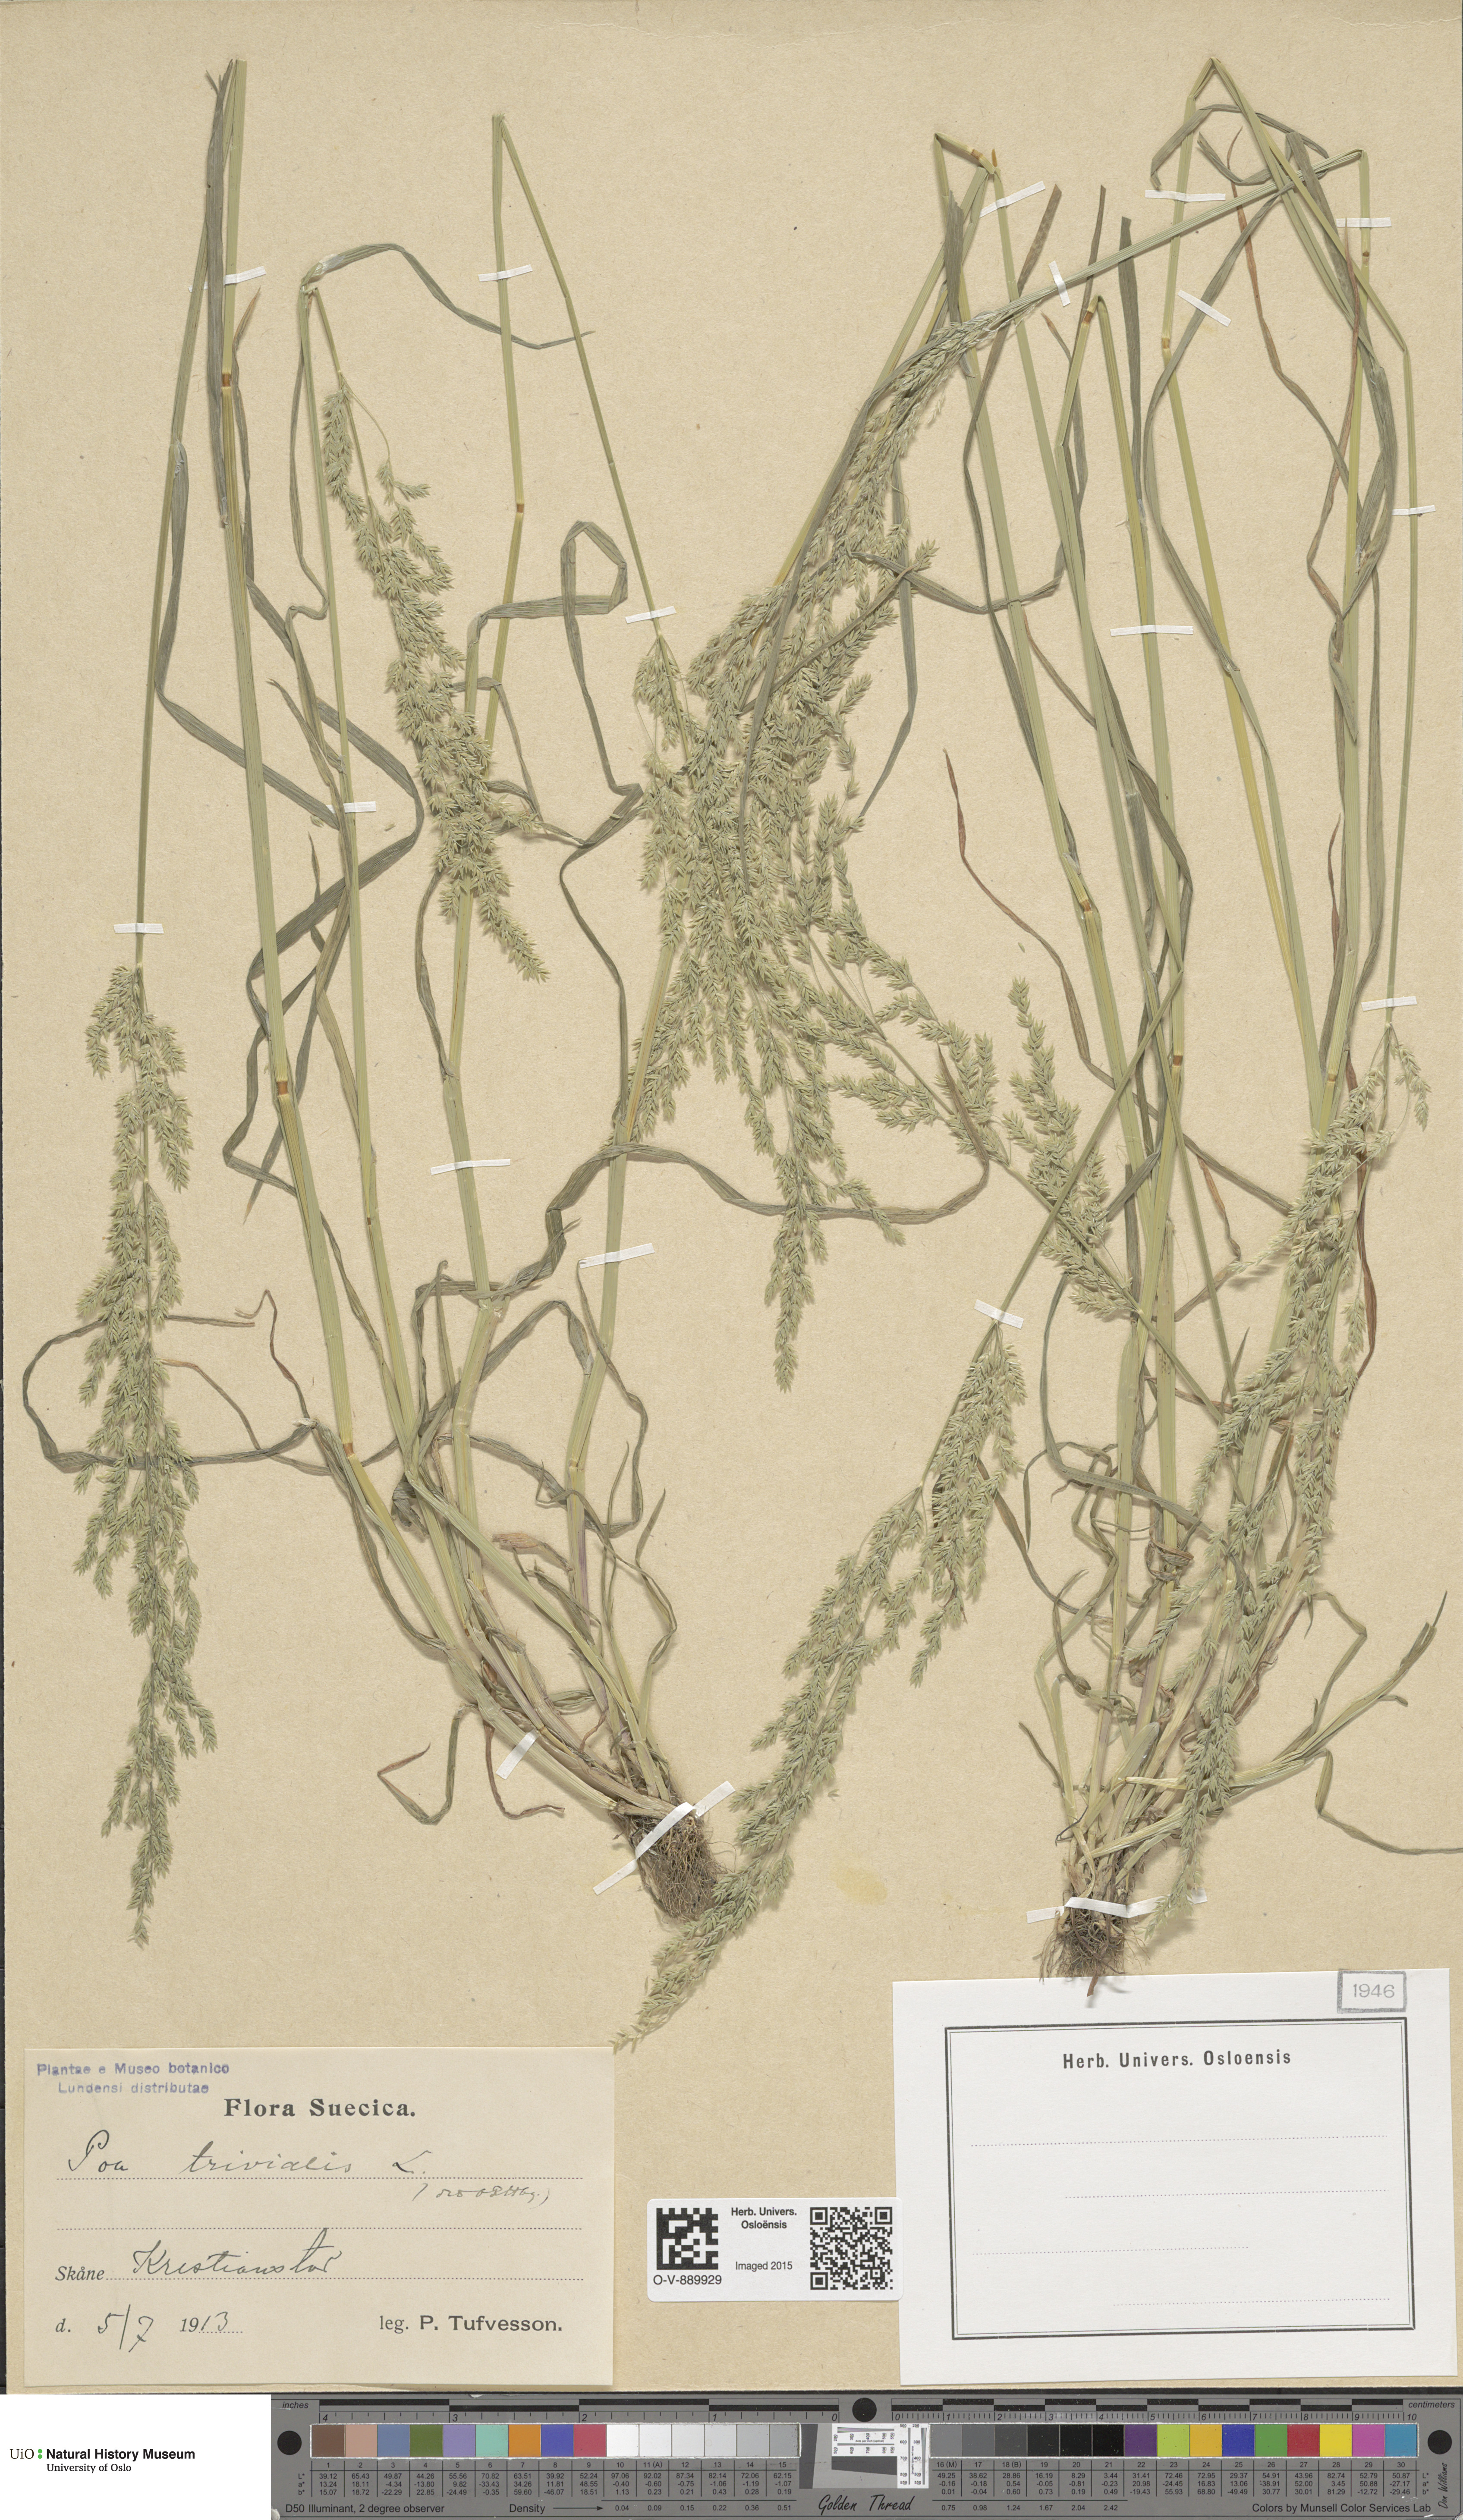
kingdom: Plantae
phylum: Tracheophyta
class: Liliopsida
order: Poales
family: Poaceae
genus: Poa
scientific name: Poa trivialis
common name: Rough bluegrass
